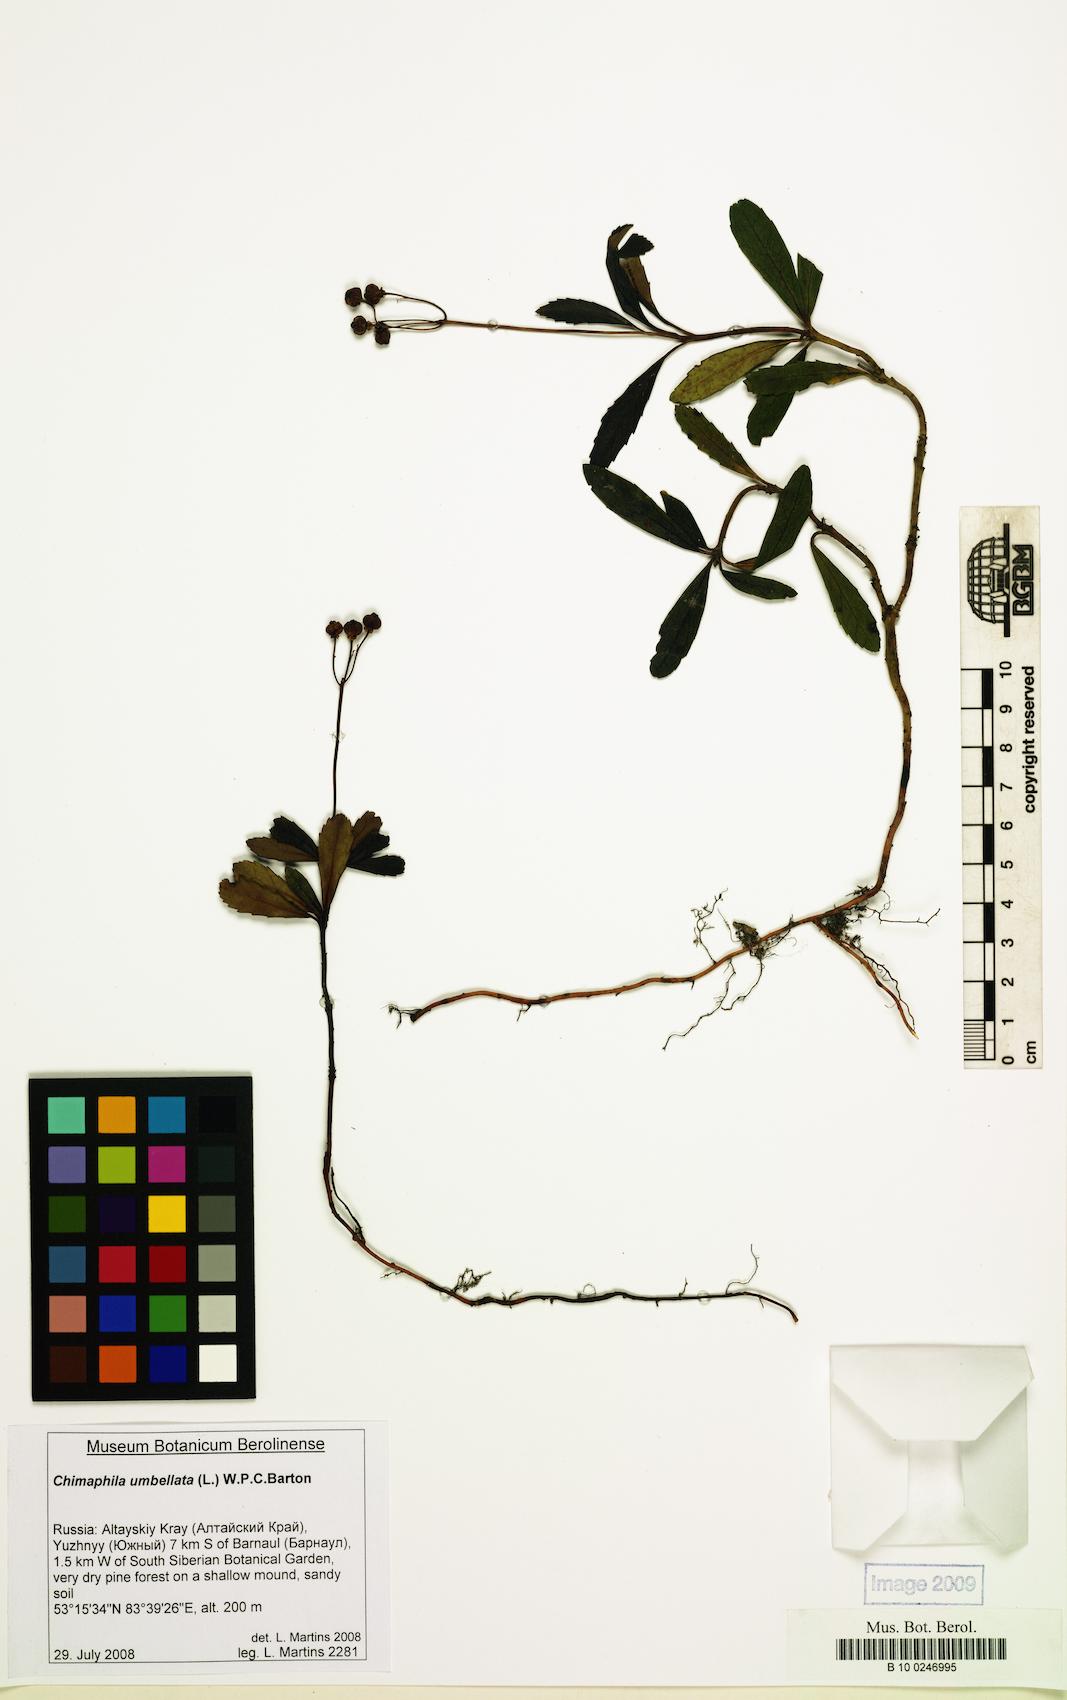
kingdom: Plantae
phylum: Tracheophyta
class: Magnoliopsida
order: Ericales
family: Ericaceae
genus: Chimaphila
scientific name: Chimaphila umbellata
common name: Pipsissewa
